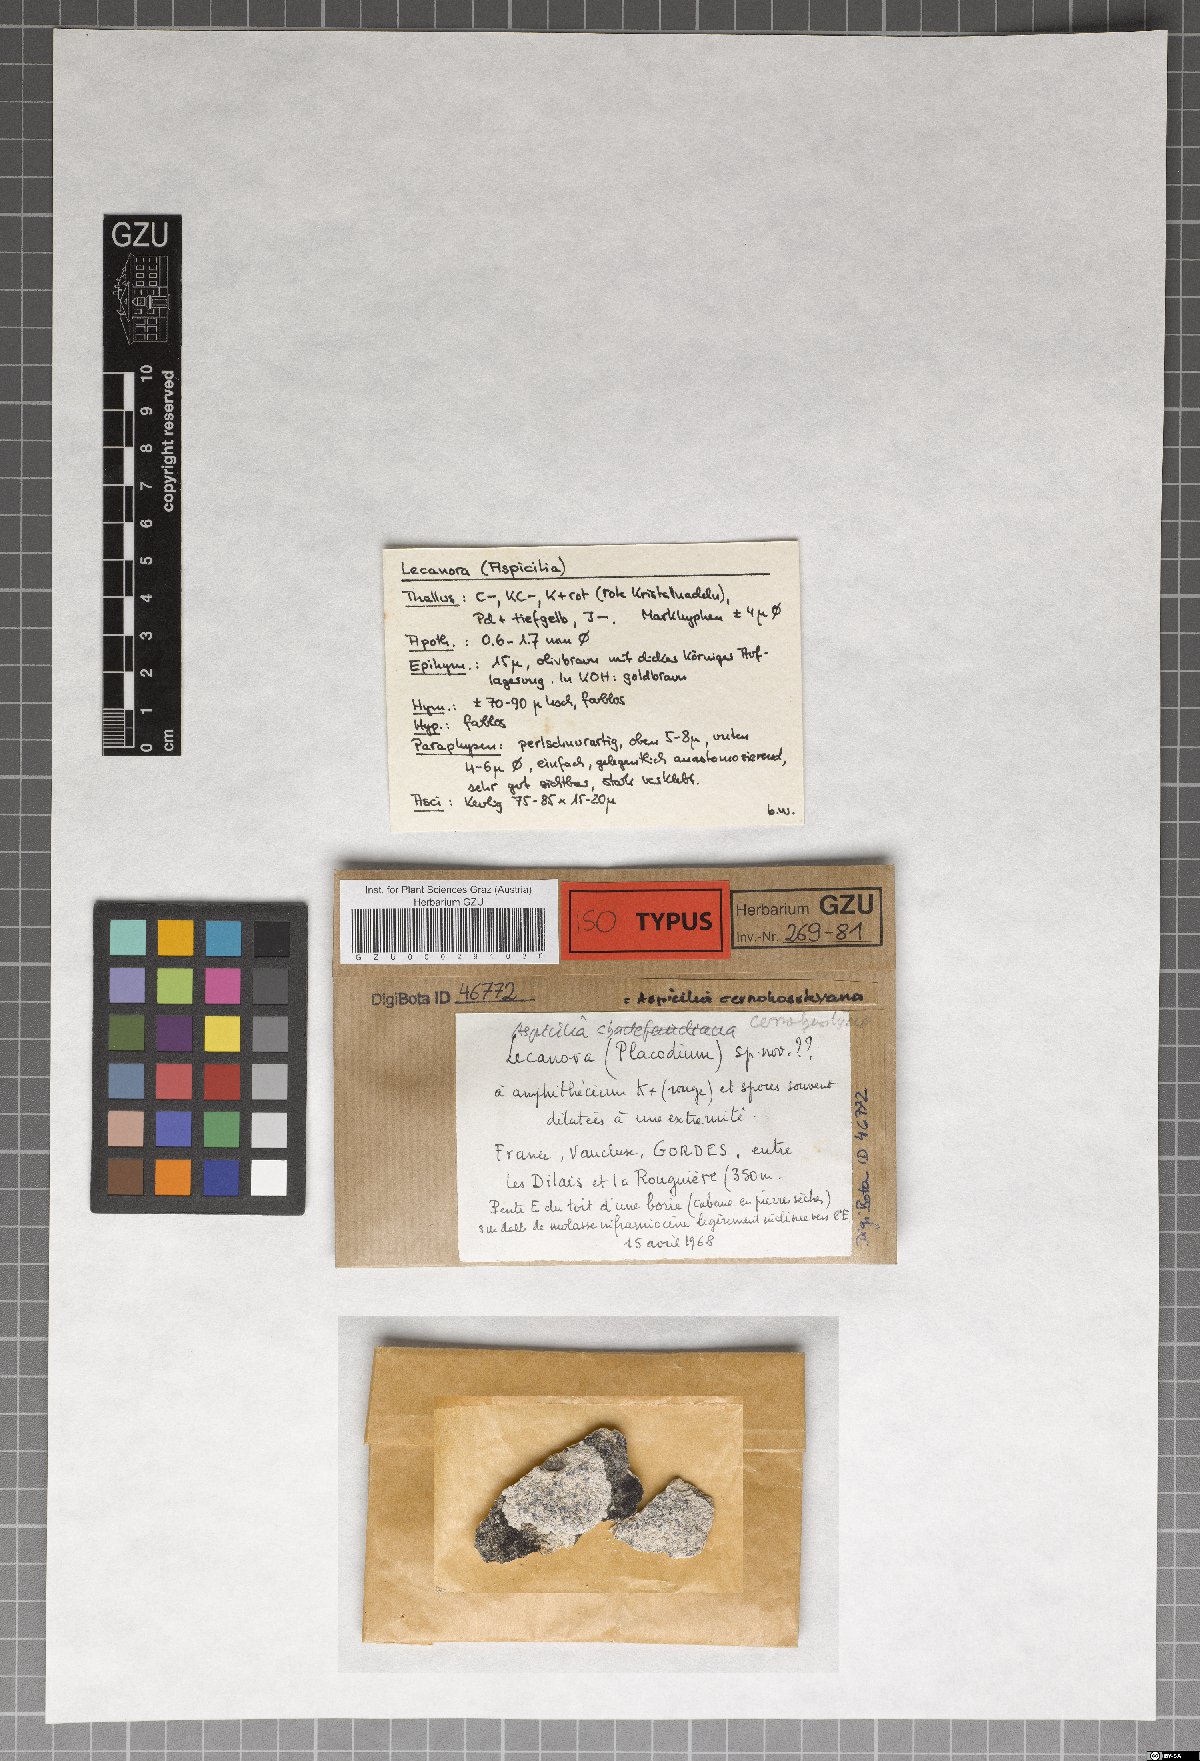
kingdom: Fungi
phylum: Ascomycota
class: Lecanoromycetes
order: Hymeneliales
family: Hymeneliaceae
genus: Aspicilia
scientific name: Aspicilia cernohorskyana
